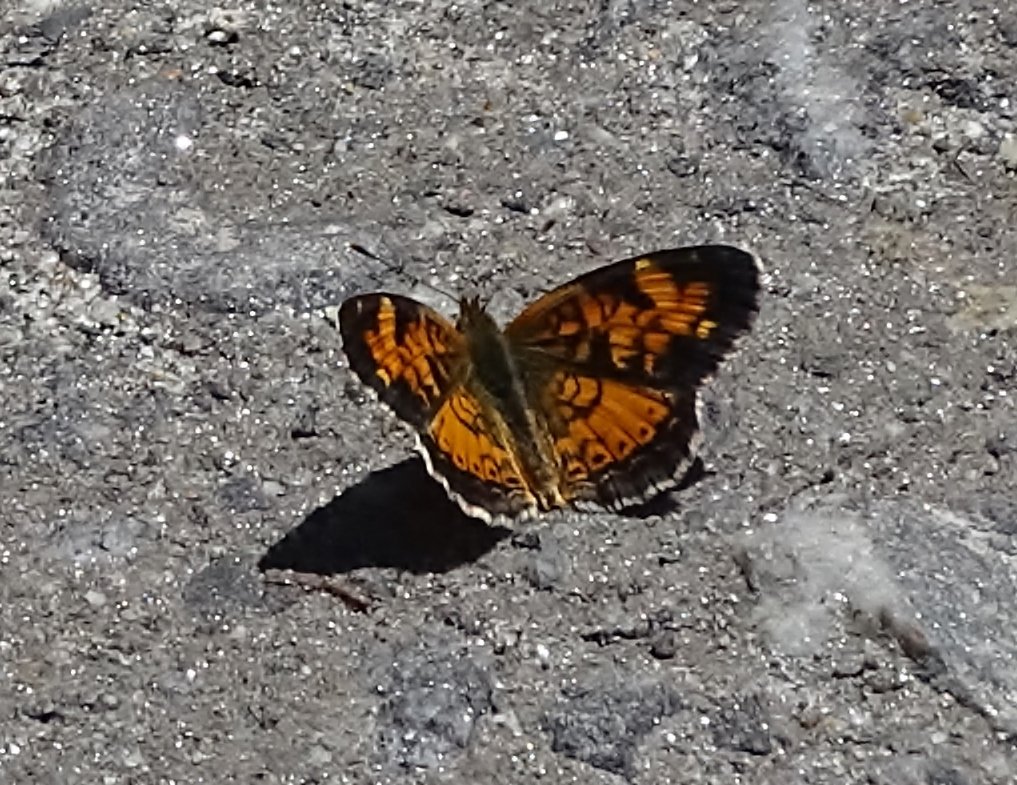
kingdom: Animalia
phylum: Arthropoda
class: Insecta
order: Lepidoptera
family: Nymphalidae
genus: Phyciodes
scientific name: Phyciodes tharos
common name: Pearl Crescent
